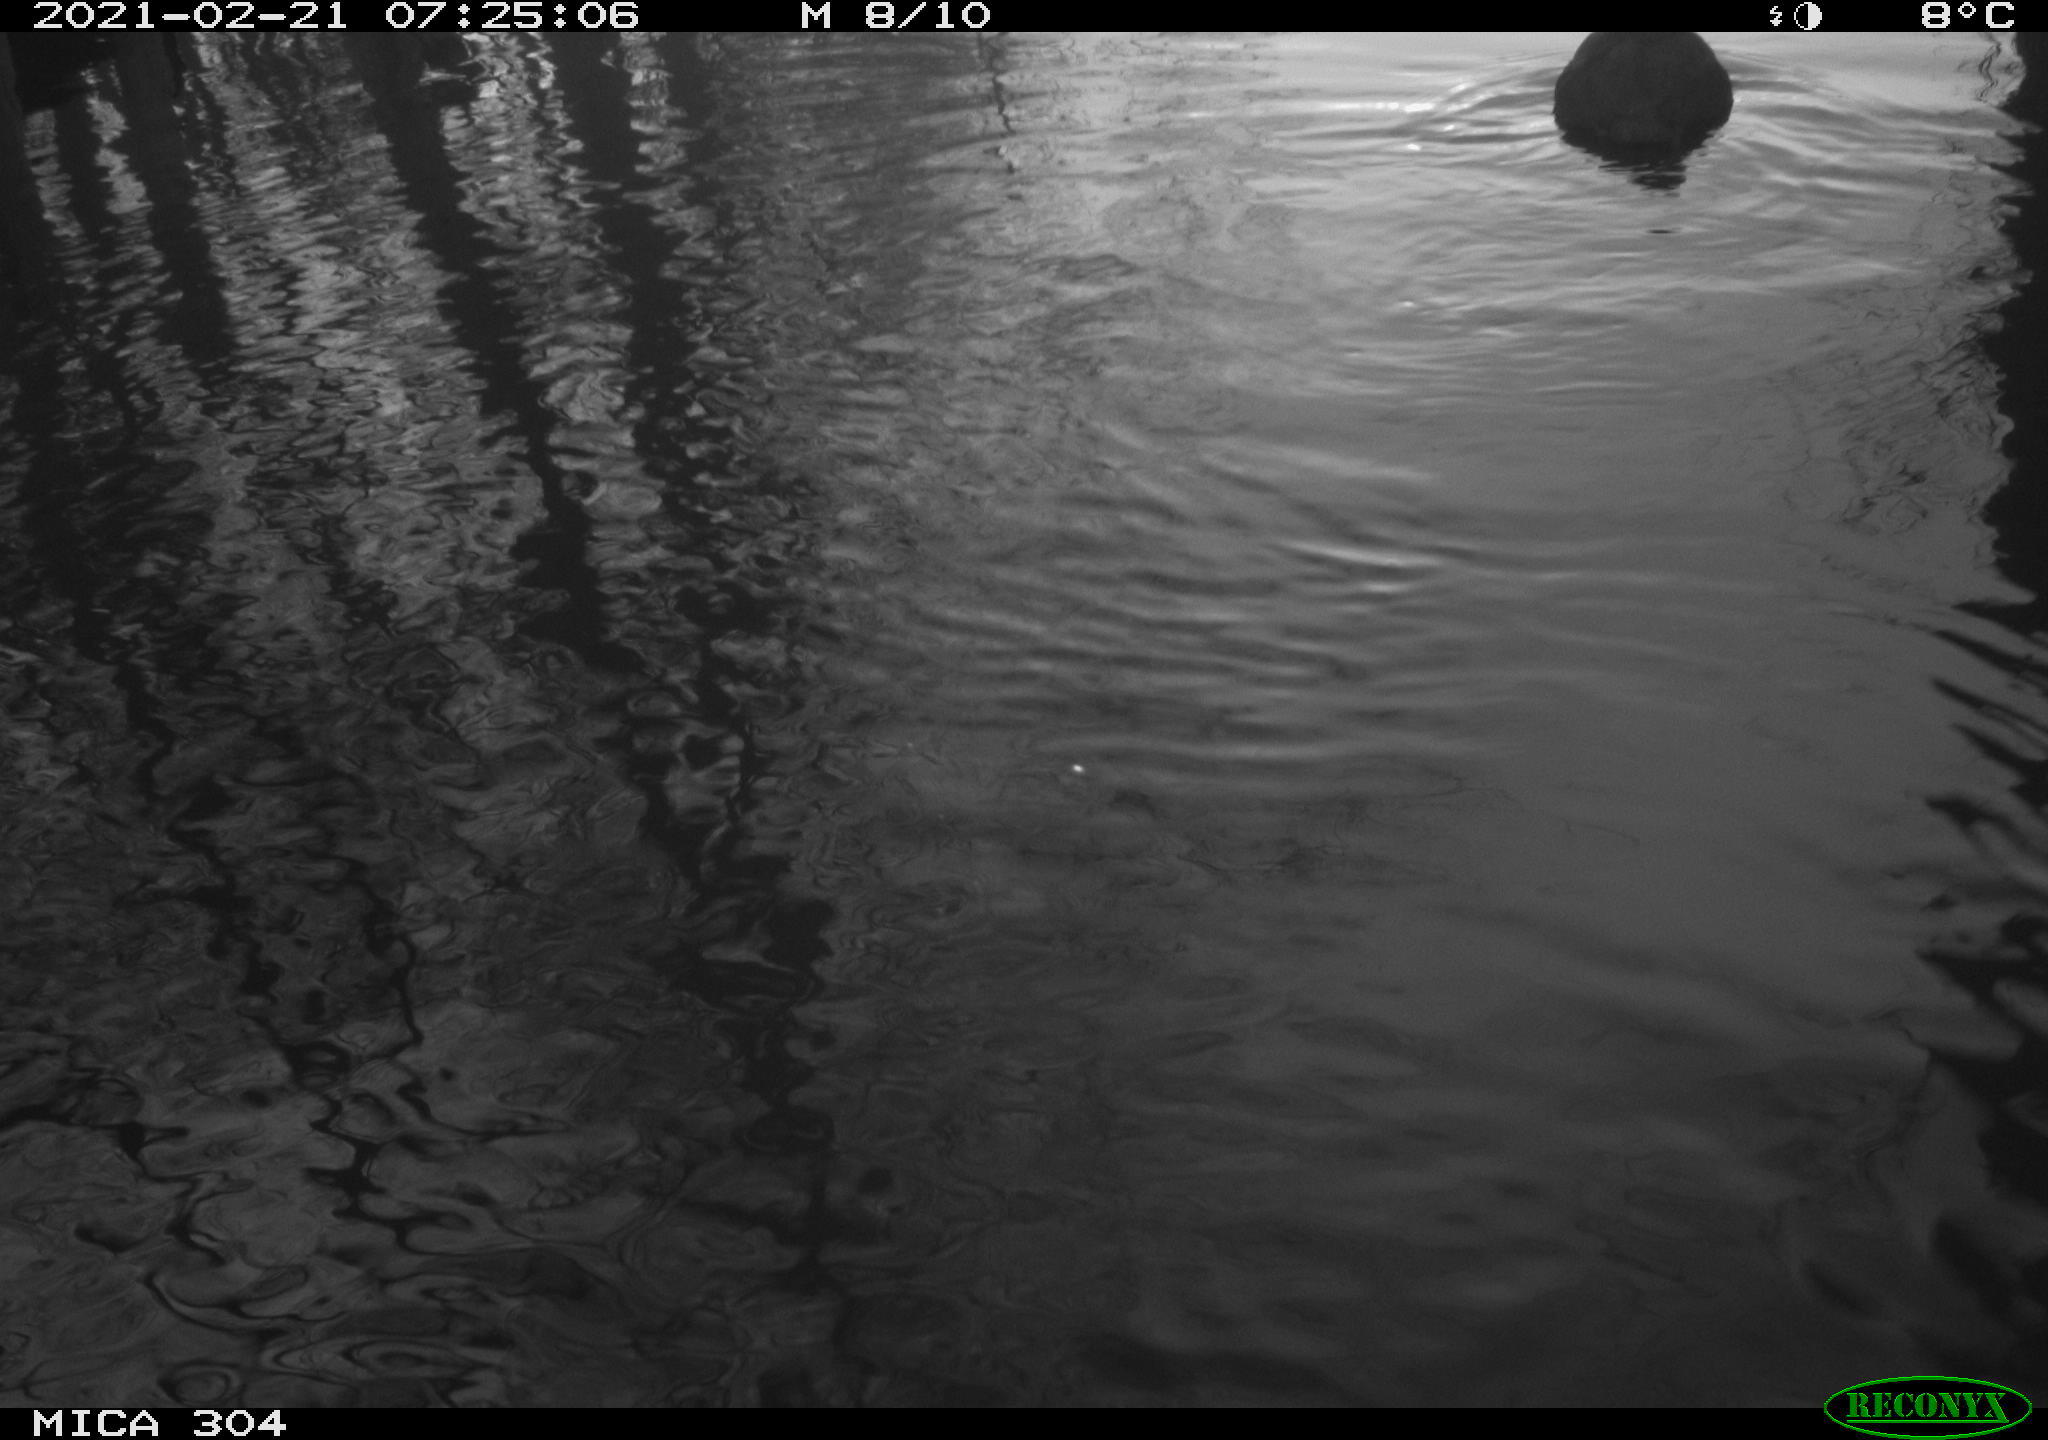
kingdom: Animalia
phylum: Chordata
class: Aves
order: Gruiformes
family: Rallidae
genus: Fulica
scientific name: Fulica atra
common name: Eurasian coot
